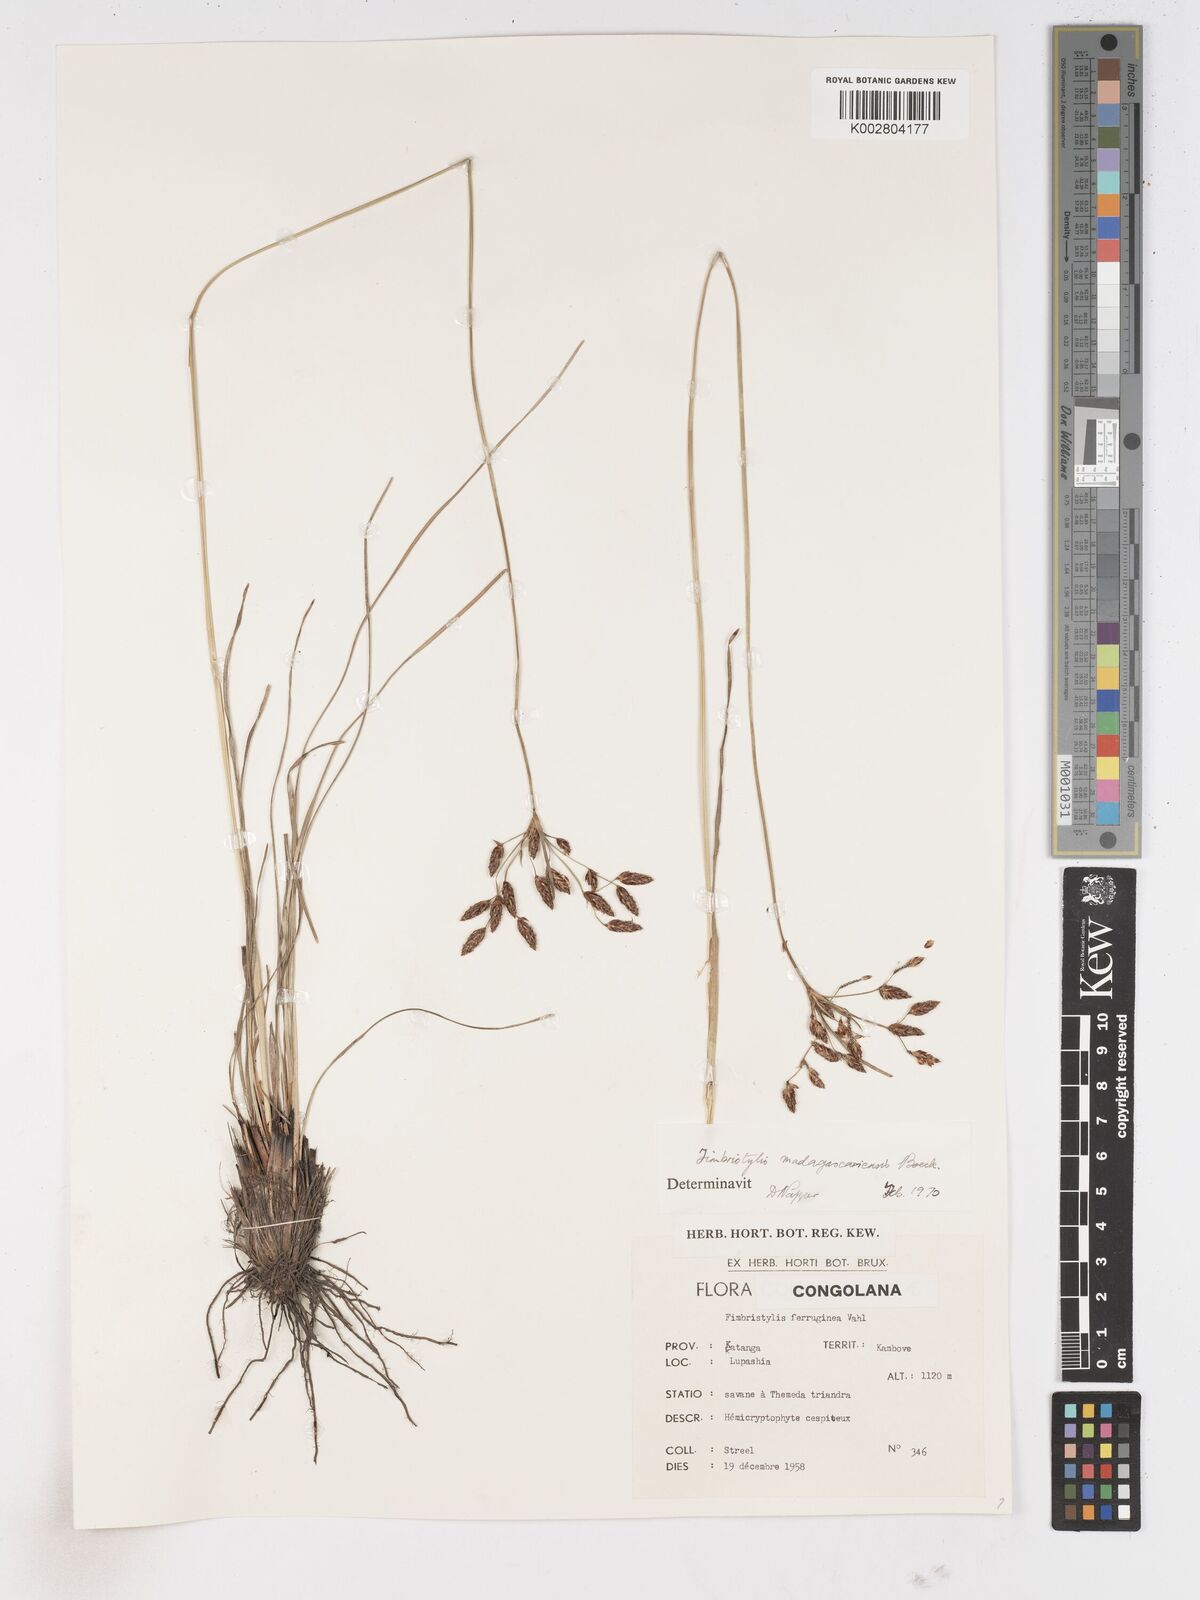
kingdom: Plantae
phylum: Tracheophyta
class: Liliopsida
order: Poales
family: Cyperaceae
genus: Fimbristylis
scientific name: Fimbristylis madagascariensis
